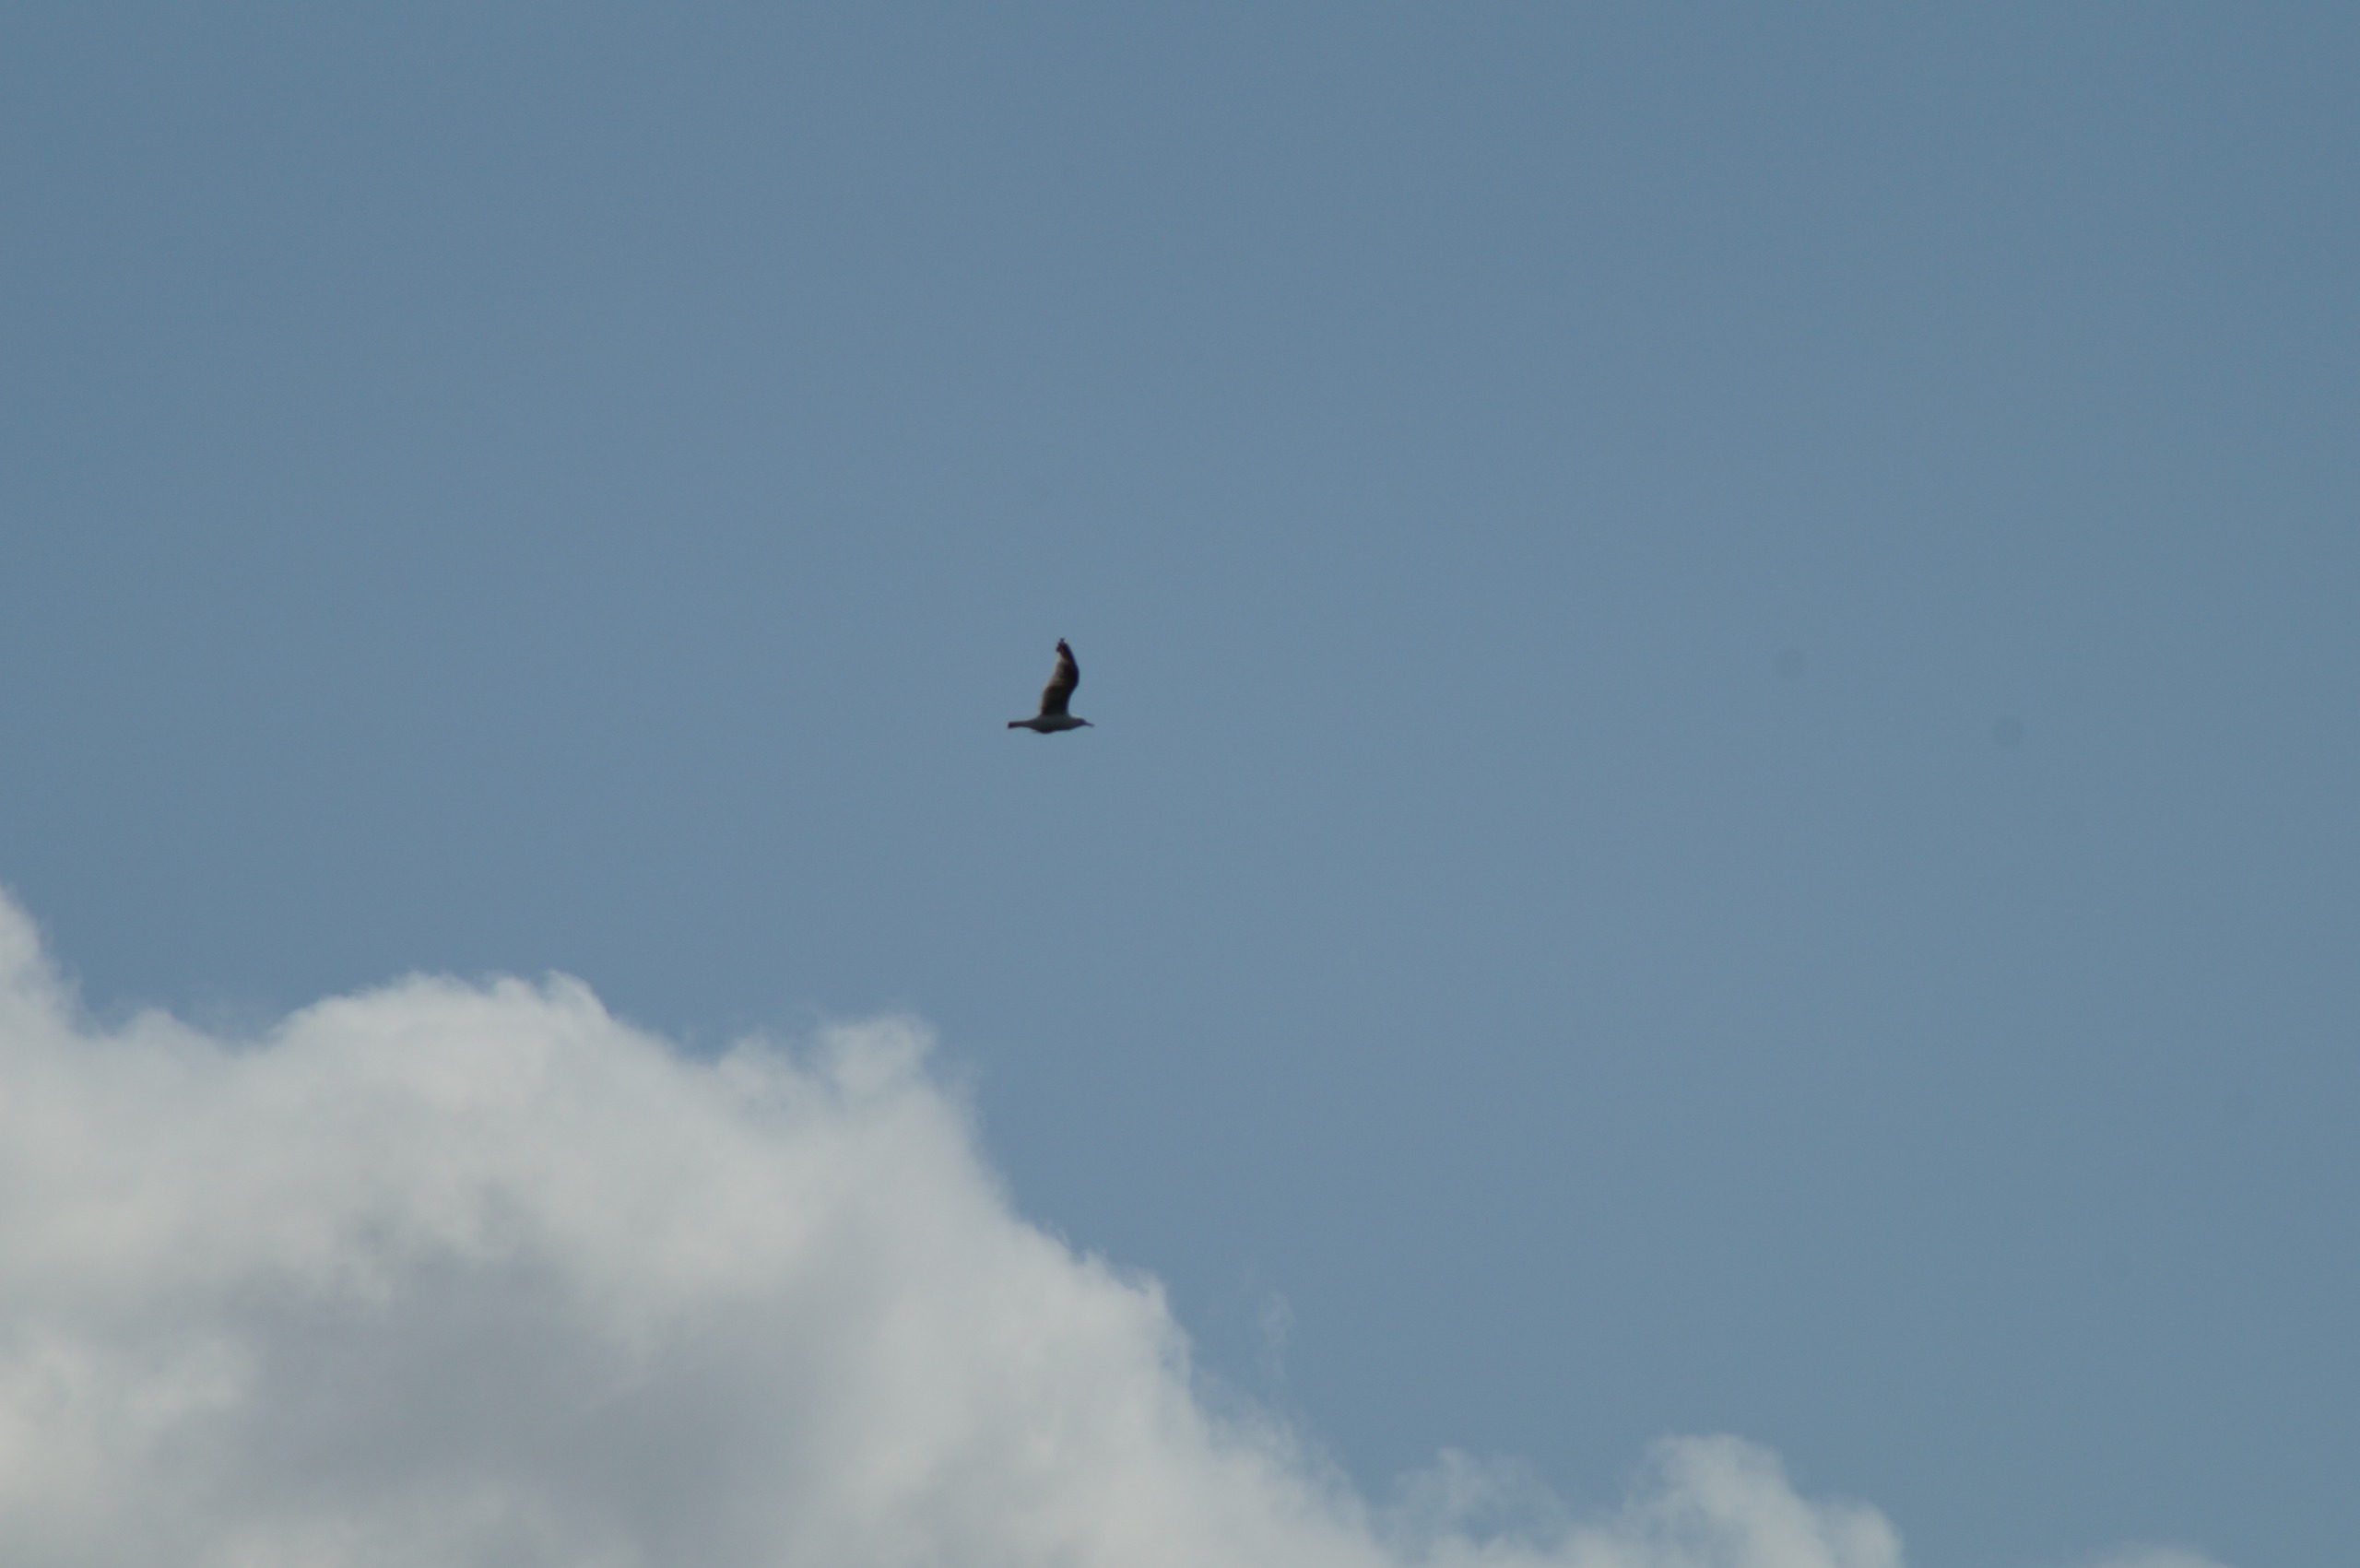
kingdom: Animalia
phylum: Chordata
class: Aves
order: Charadriiformes
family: Laridae
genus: Larus
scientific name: Larus argentatus
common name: Sølvmåge
